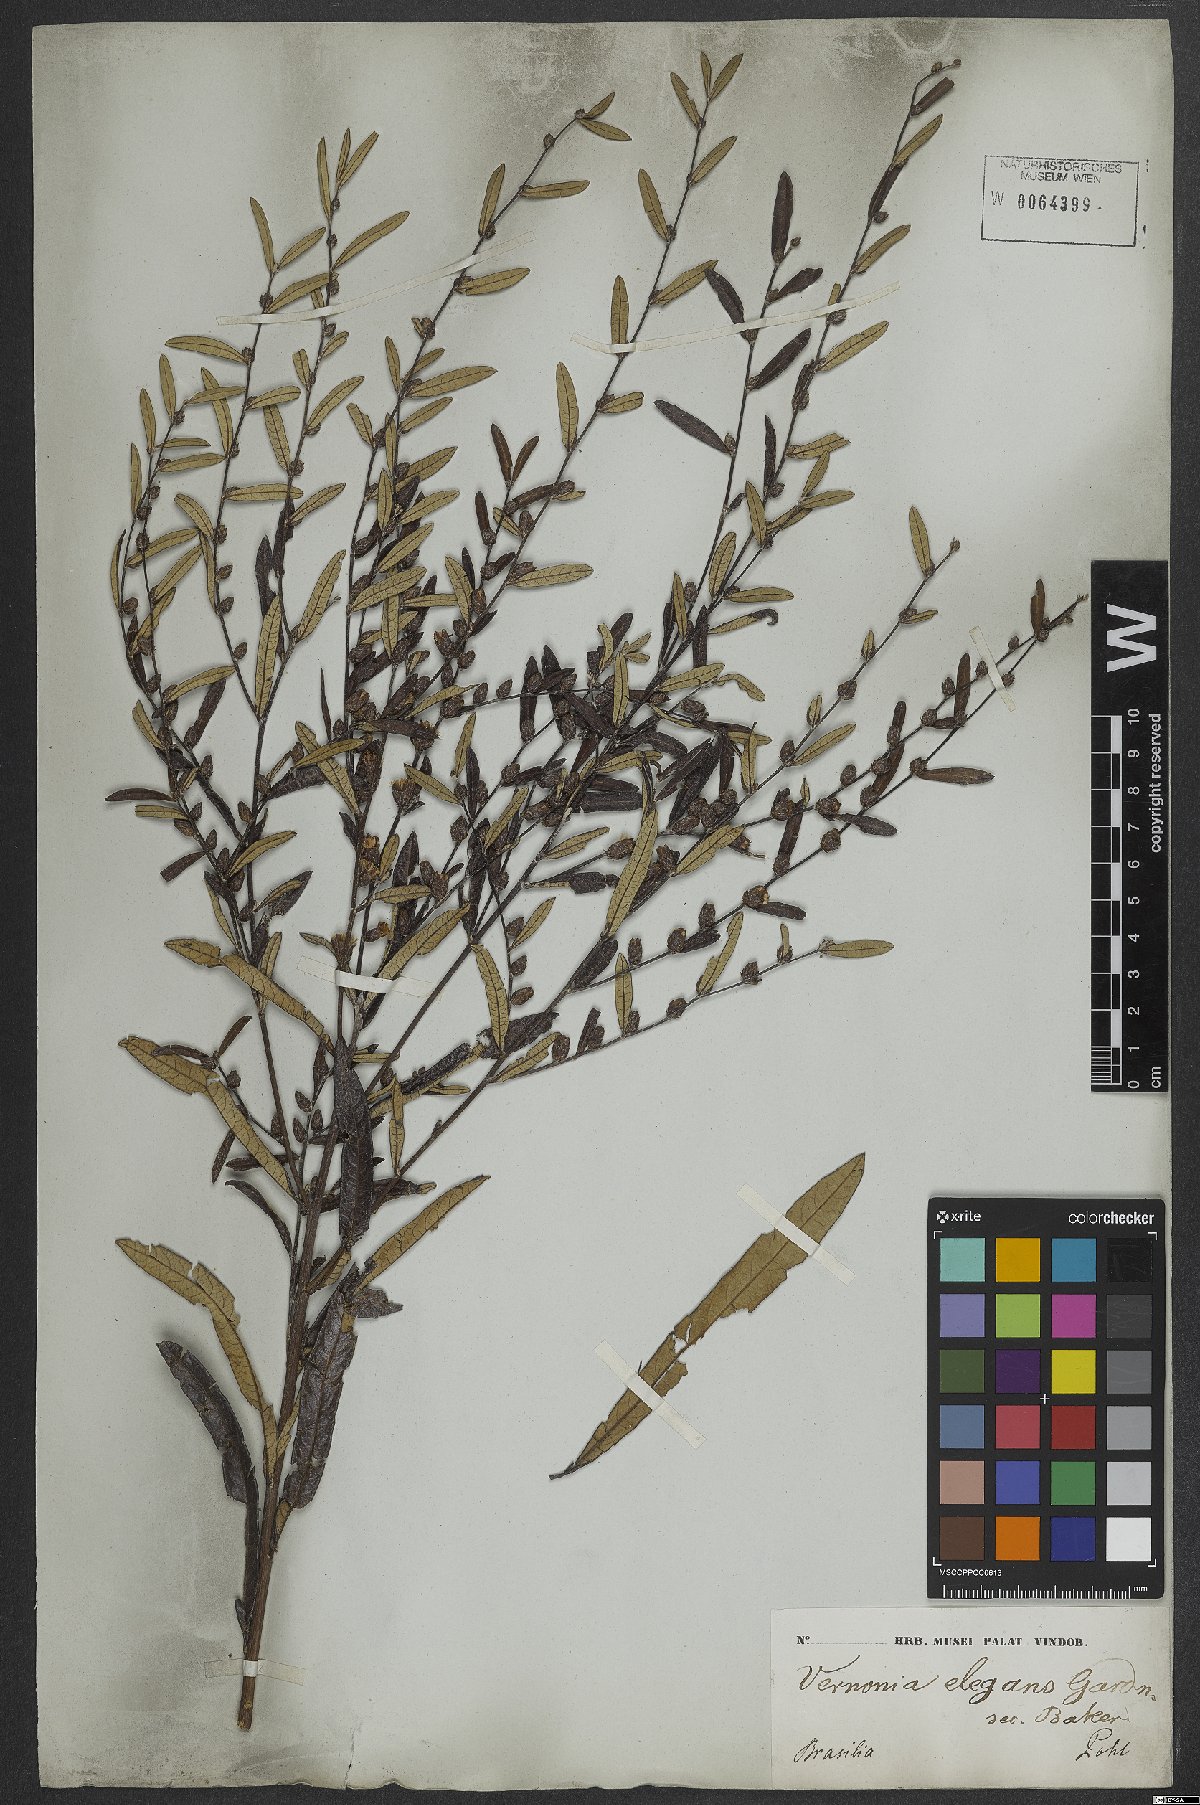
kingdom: Plantae
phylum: Tracheophyta
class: Magnoliopsida
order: Asterales
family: Asteraceae
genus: Lessingianthus
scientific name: Lessingianthus elegans
